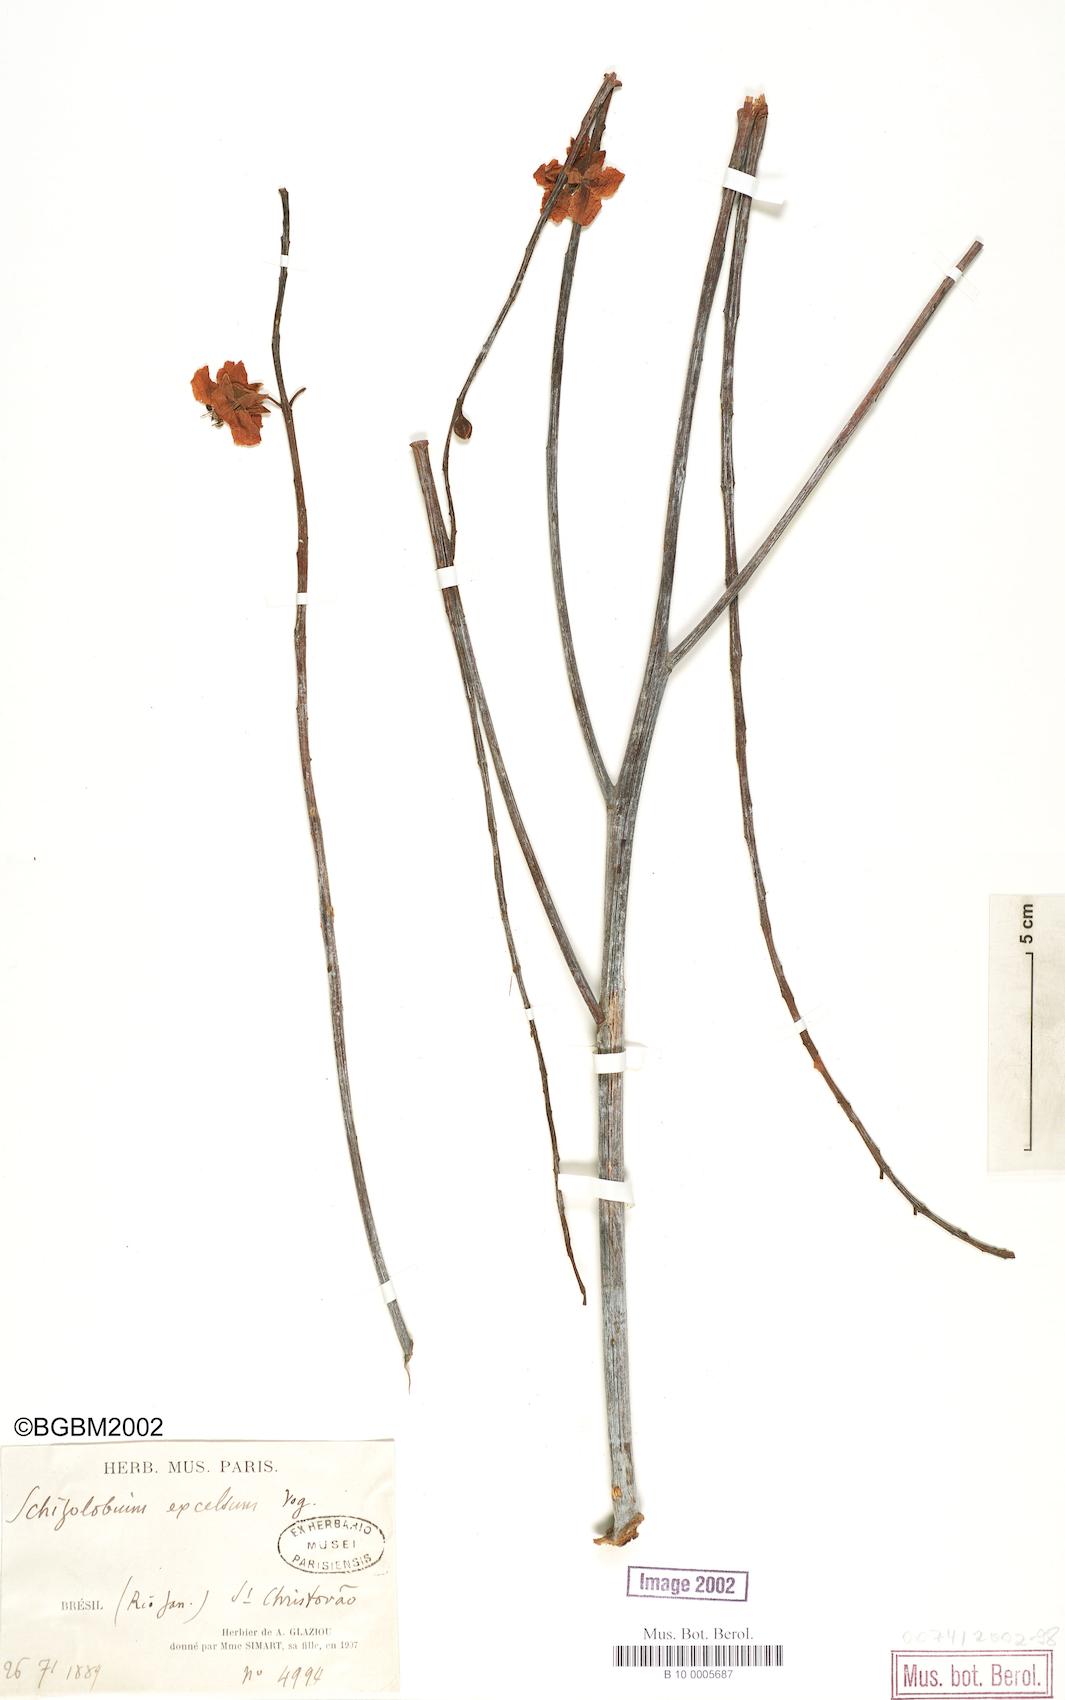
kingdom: Plantae
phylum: Tracheophyta
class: Magnoliopsida
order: Fabales
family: Fabaceae
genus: Schizolobium
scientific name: Schizolobium parahyba
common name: Brazilian firetree
